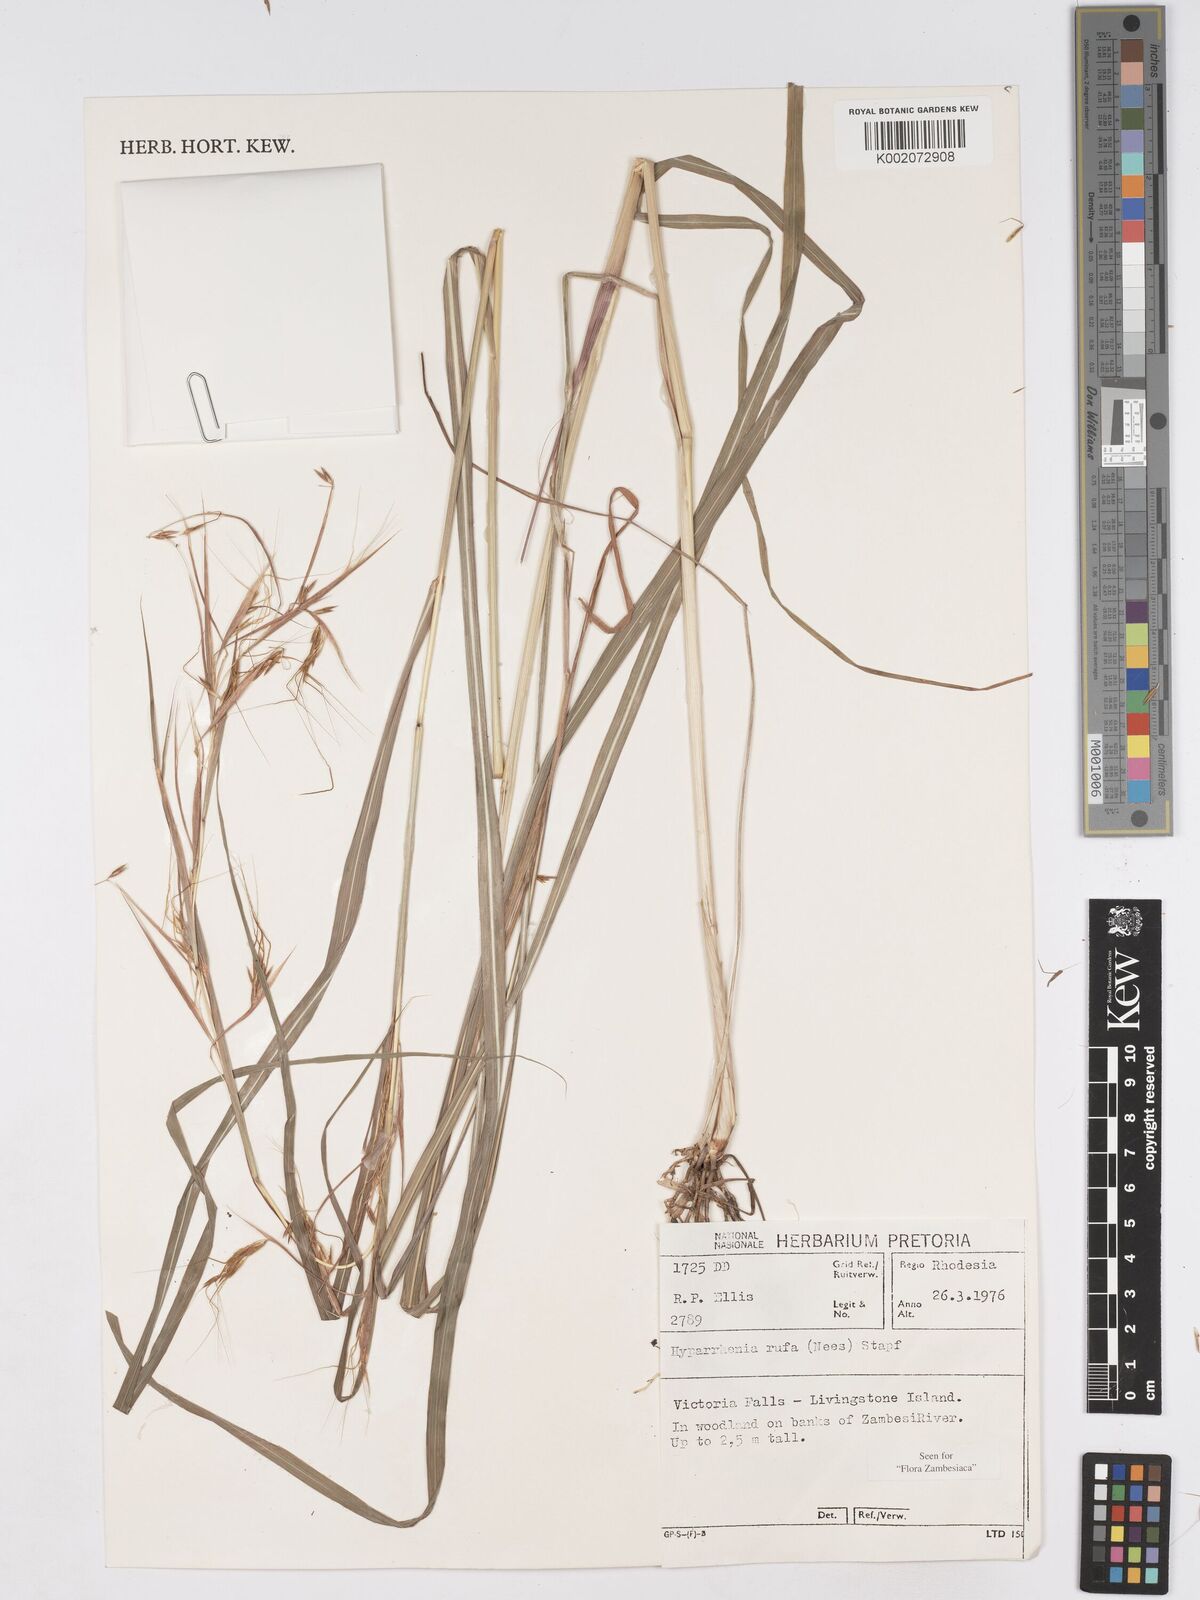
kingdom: Plantae
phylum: Tracheophyta
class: Liliopsida
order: Poales
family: Poaceae
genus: Hyparrhenia
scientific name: Hyparrhenia rufa
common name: Jaraguagrass
